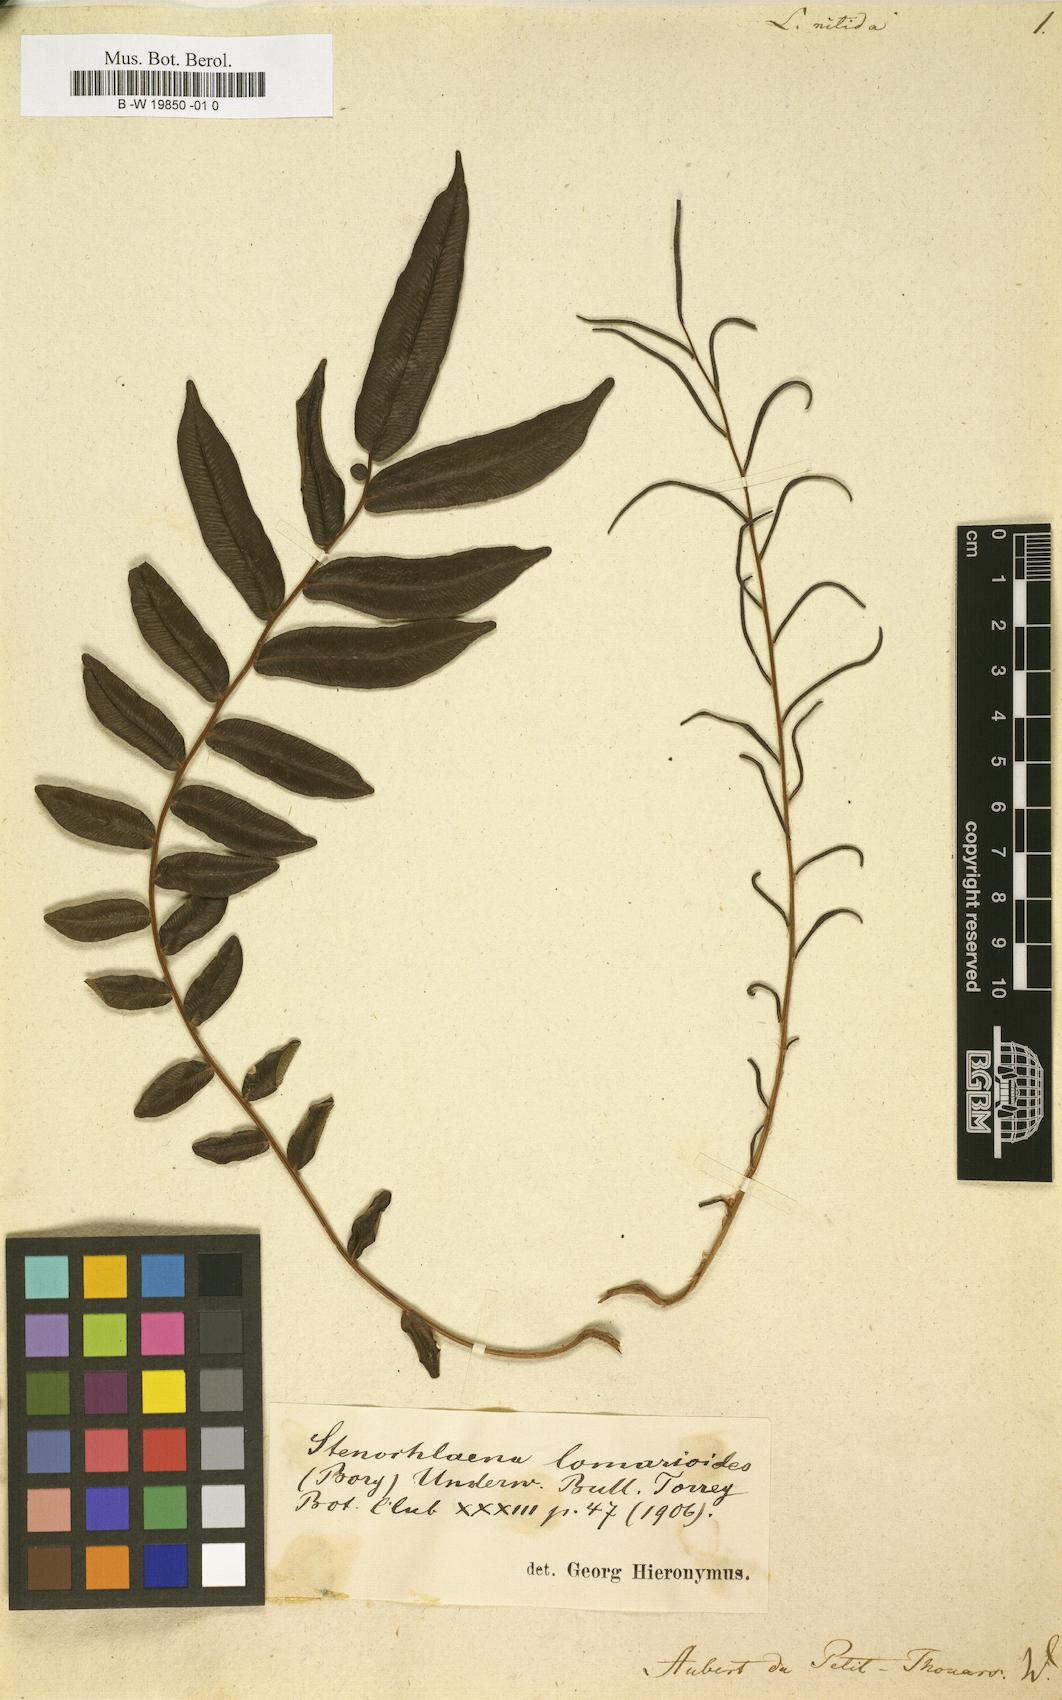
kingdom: Plantae
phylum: Tracheophyta
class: Polypodiopsida
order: Polypodiales
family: Blechnaceae
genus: Lomaria
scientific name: Lomaria
